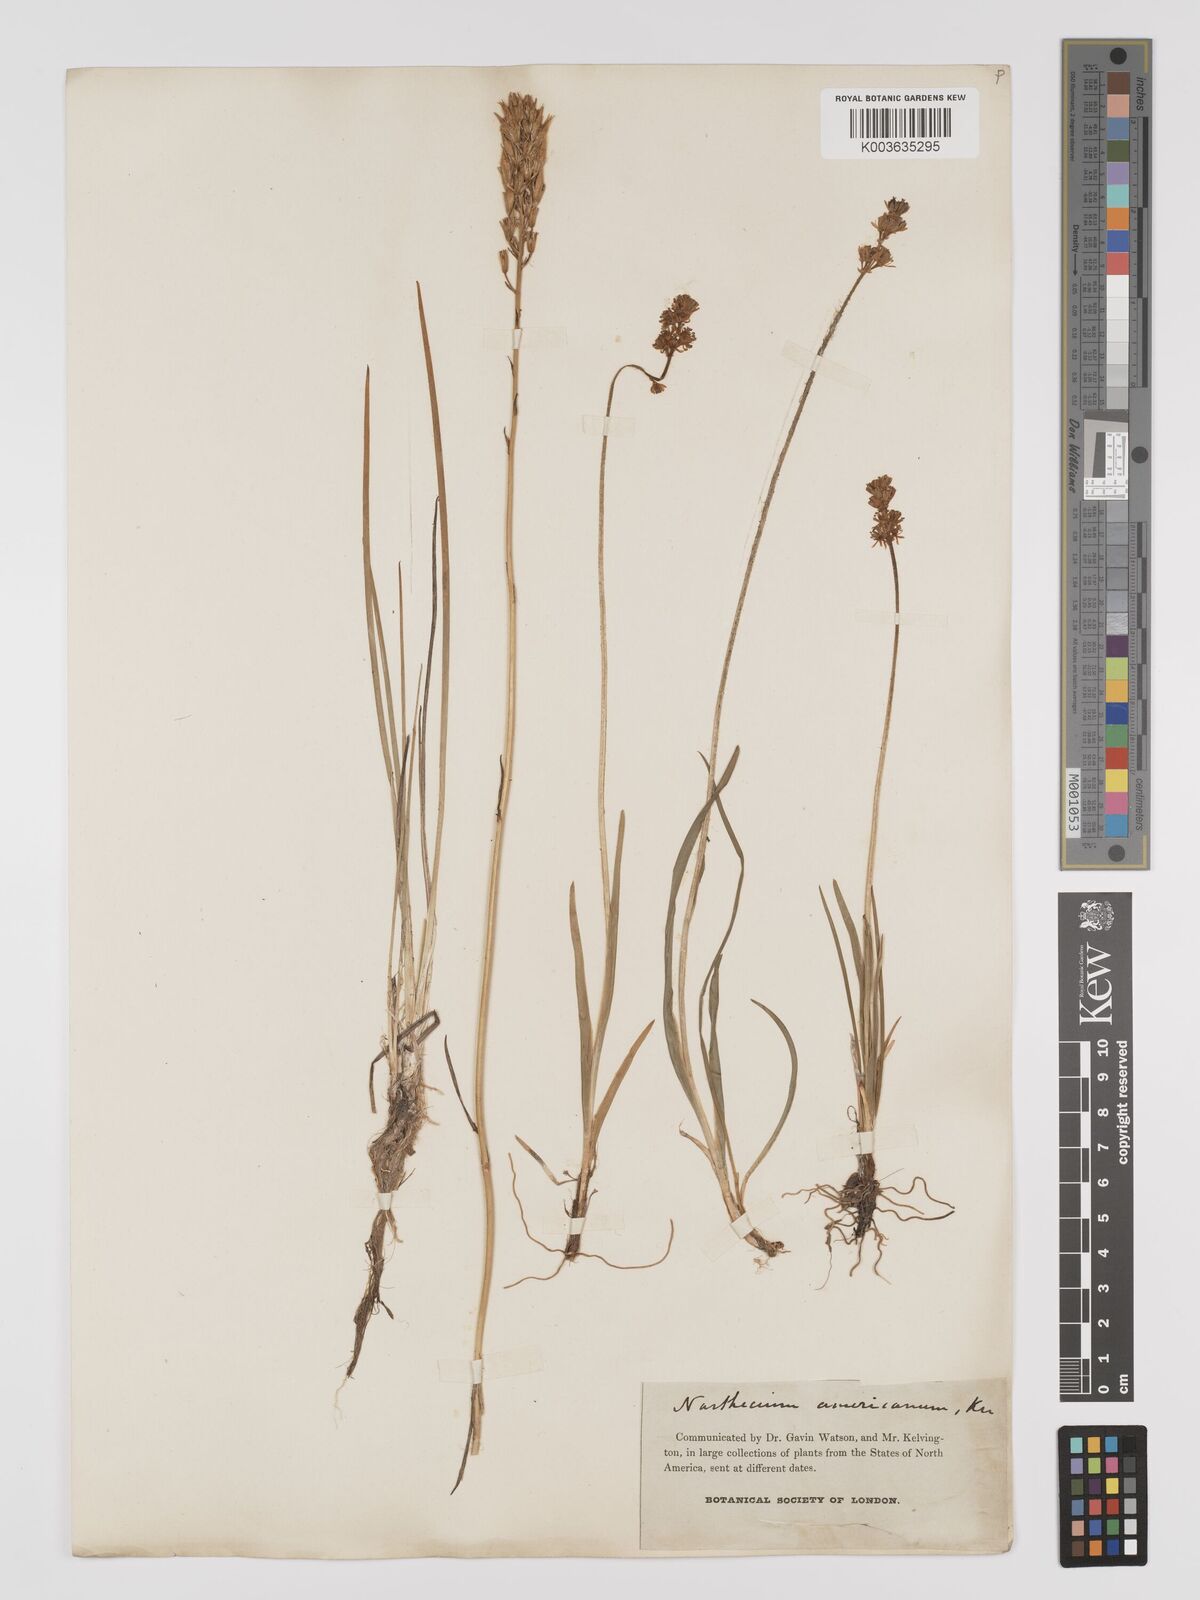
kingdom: Plantae
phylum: Tracheophyta
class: Liliopsida
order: Dioscoreales
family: Nartheciaceae
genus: Narthecium
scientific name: Narthecium americanum
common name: Bog-asphodel
